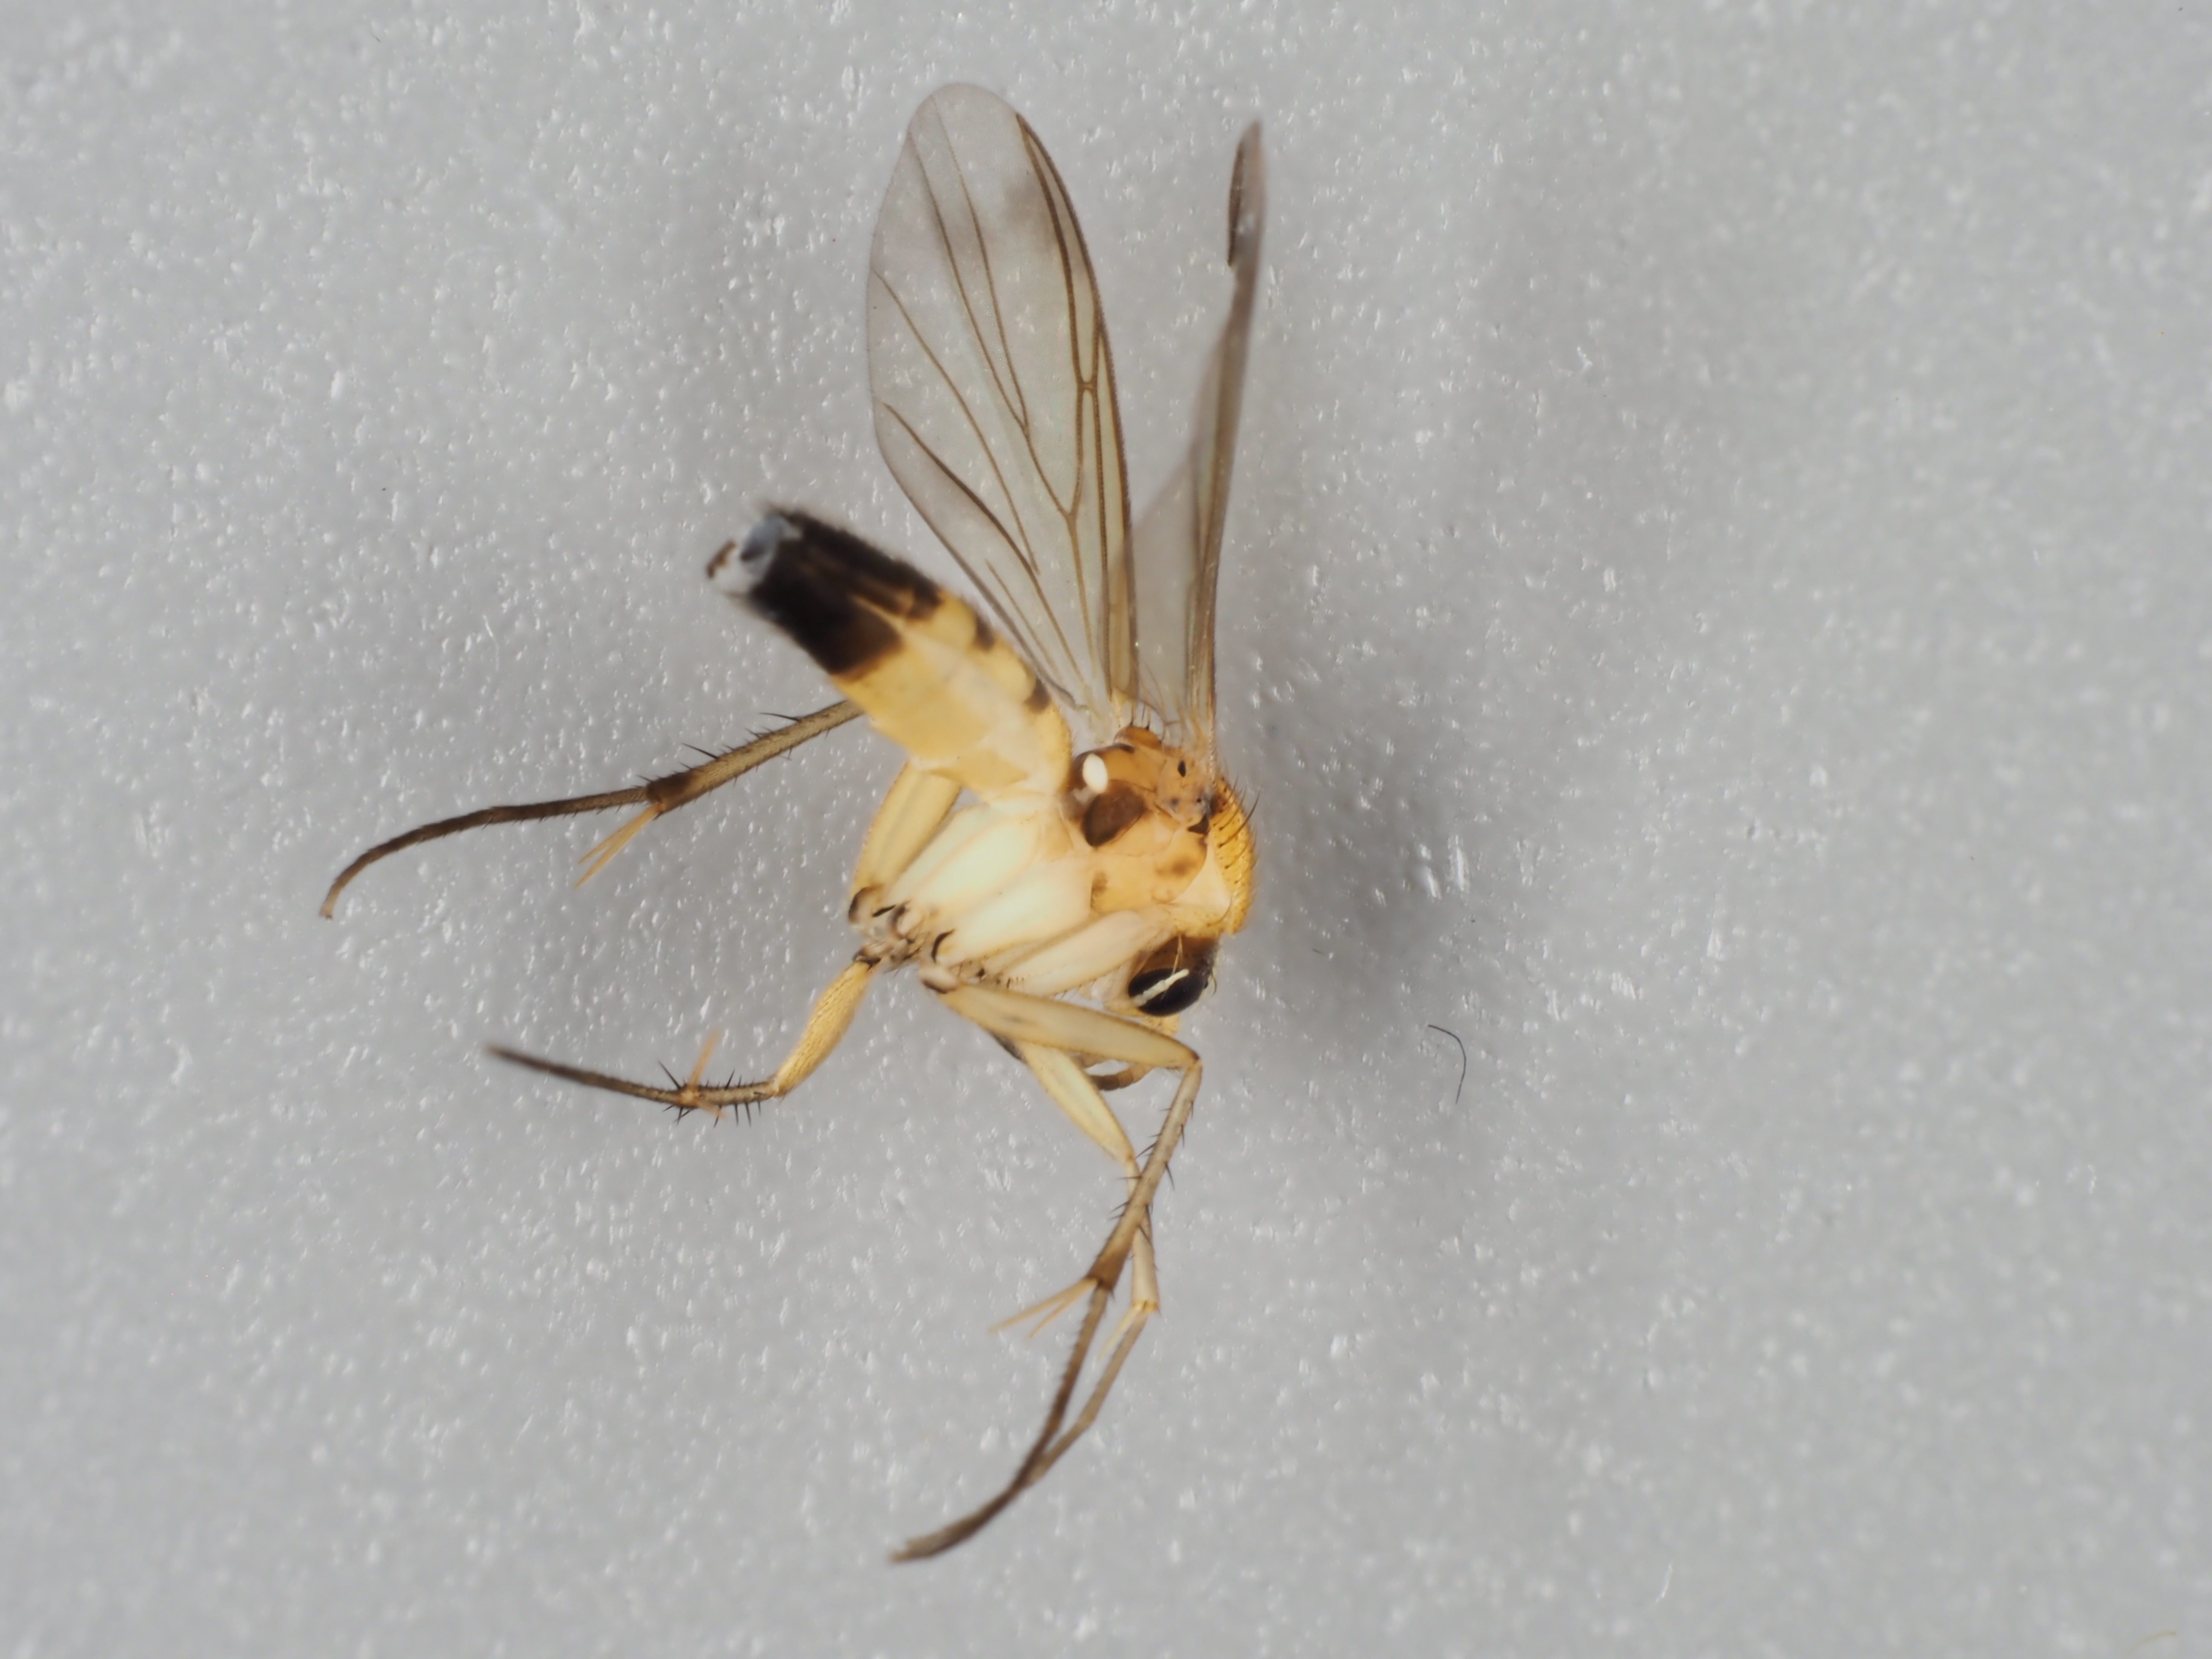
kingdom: Animalia
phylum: Arthropoda
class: Insecta
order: Diptera
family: Mycetophilidae
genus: Leia
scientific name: Leia picta
